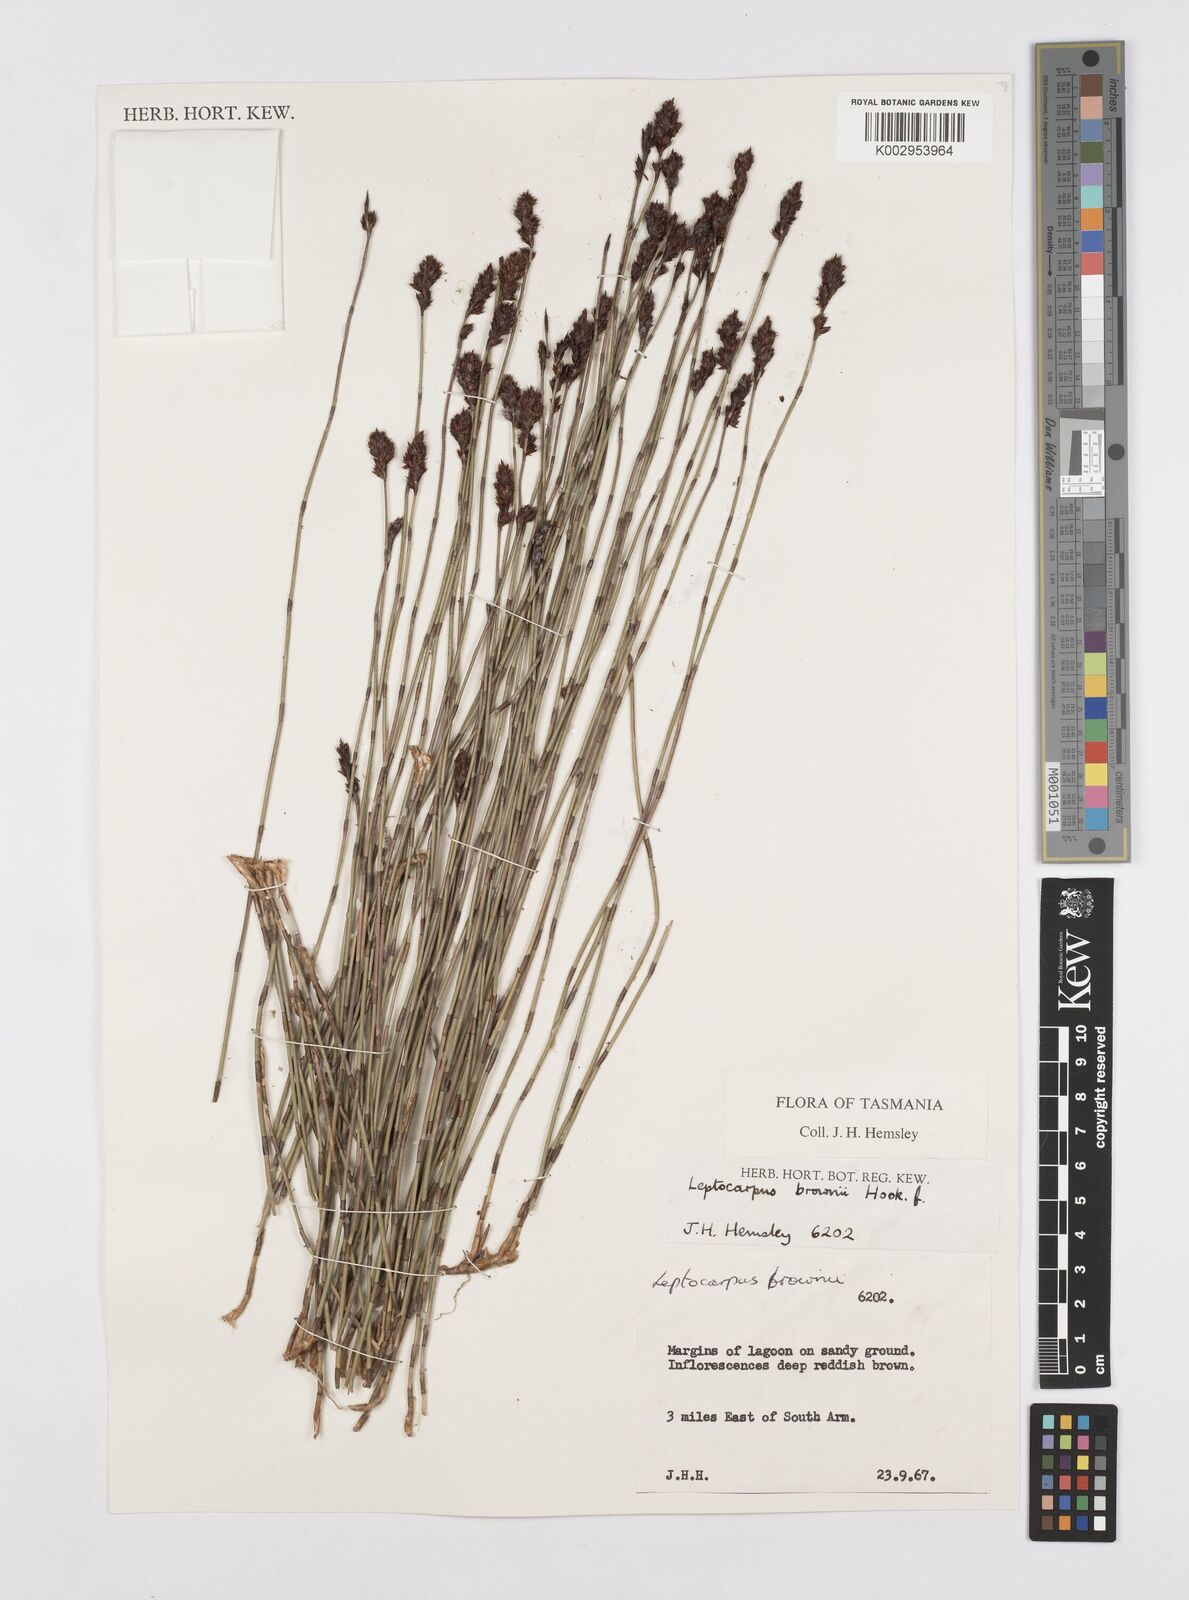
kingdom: Plantae
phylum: Tracheophyta
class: Liliopsida
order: Poales
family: Restionaceae
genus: Apodasmia
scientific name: Apodasmia brownii
